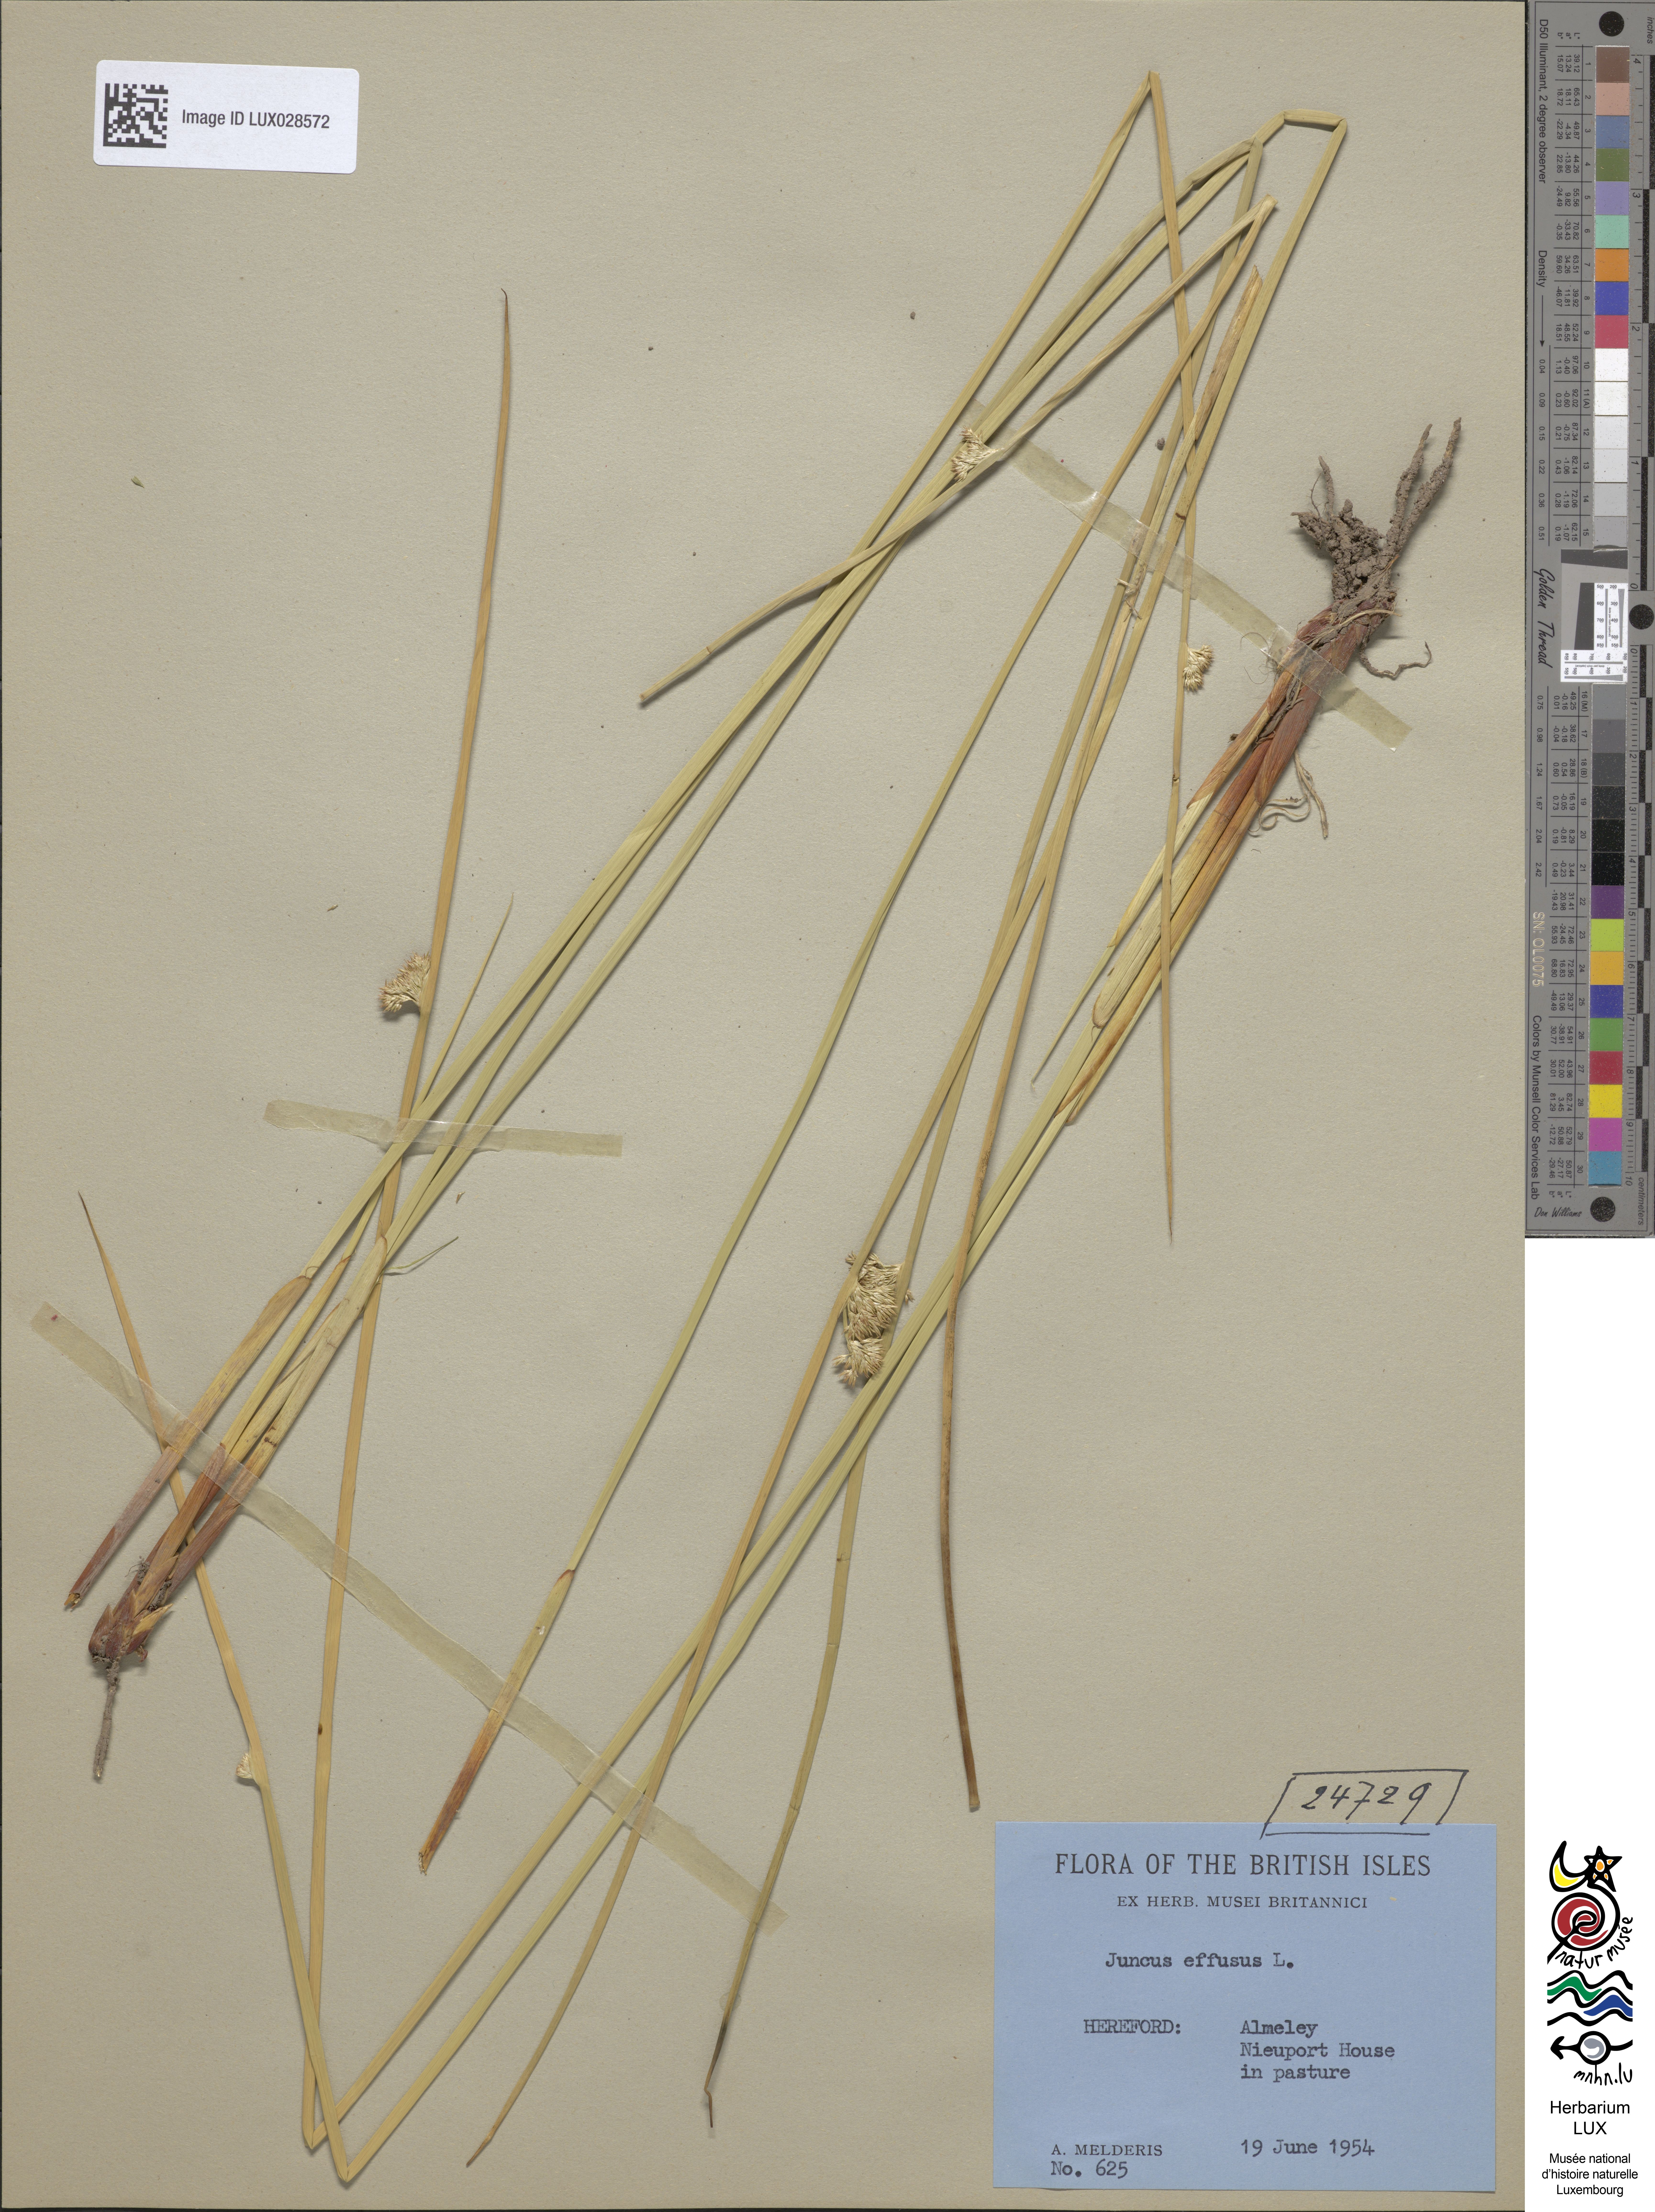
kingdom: Plantae
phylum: Tracheophyta
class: Liliopsida
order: Poales
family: Juncaceae
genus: Juncus
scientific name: Juncus effusus
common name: Soft rush
